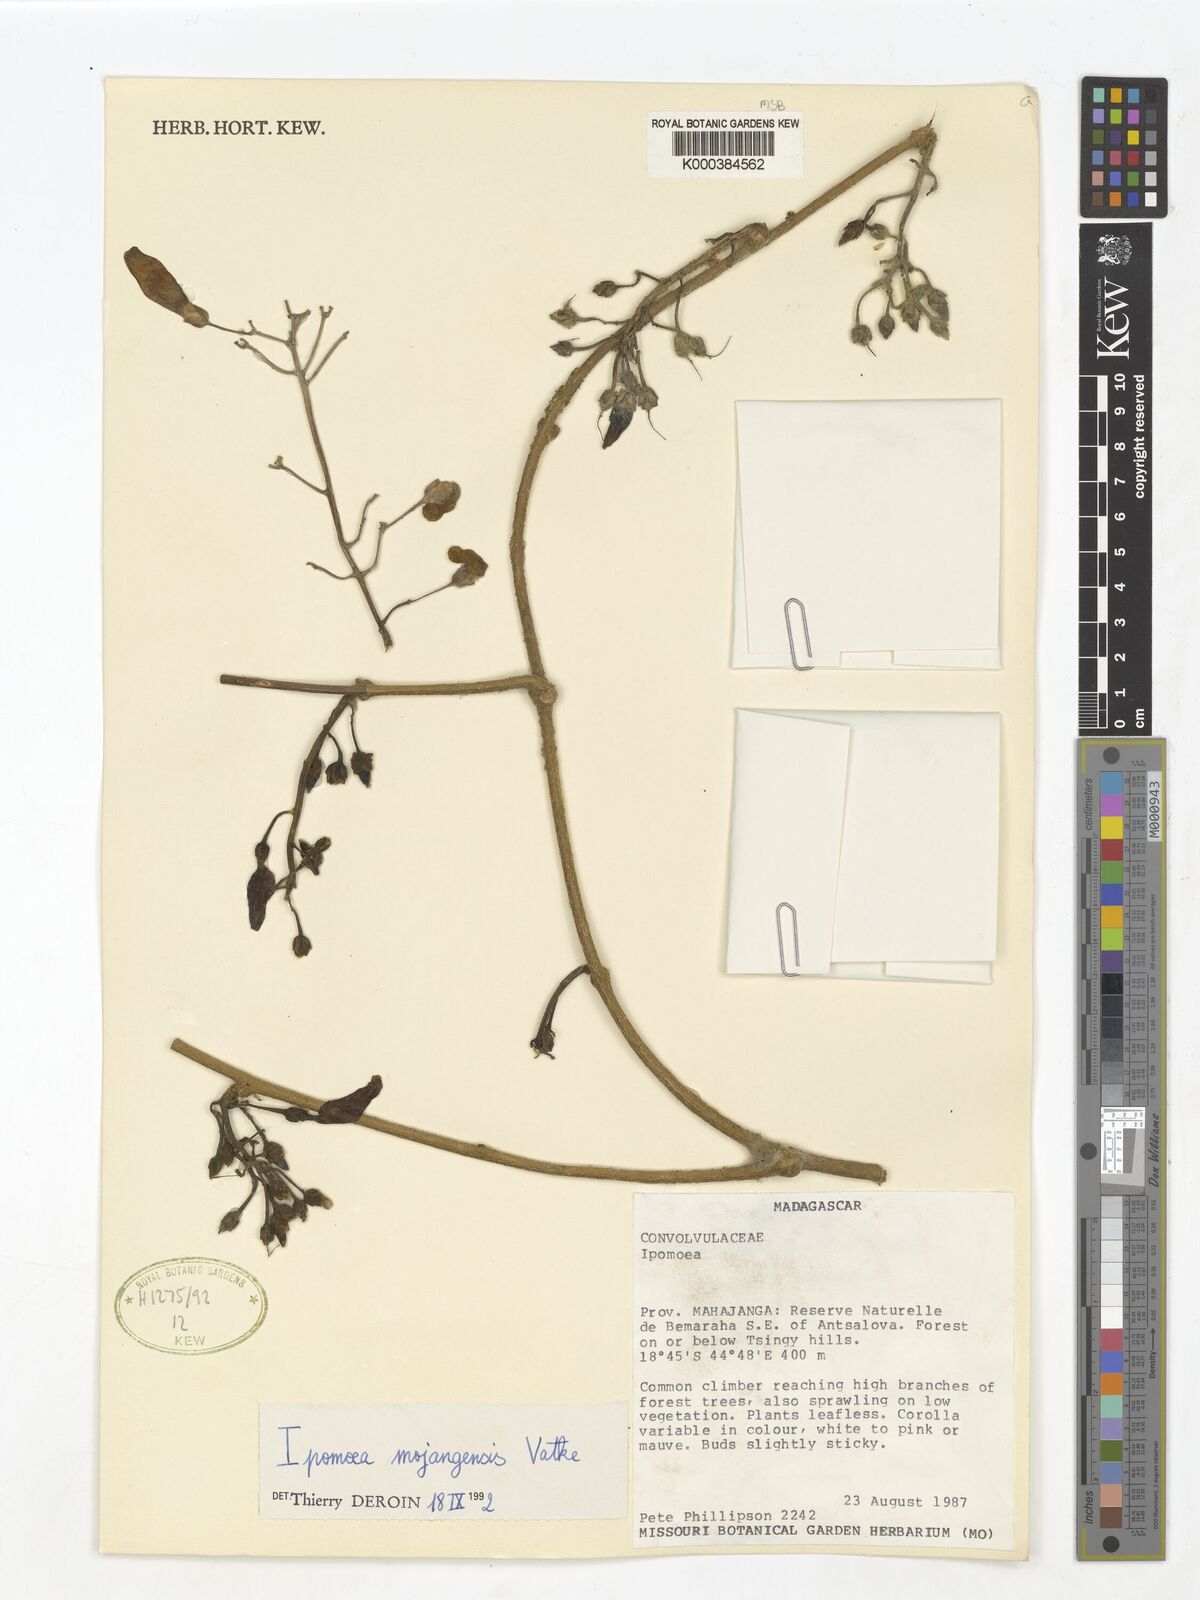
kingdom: Plantae
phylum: Tracheophyta
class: Magnoliopsida
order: Solanales
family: Convolvulaceae
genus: Stictocardia
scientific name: Stictocardia mojangensis
